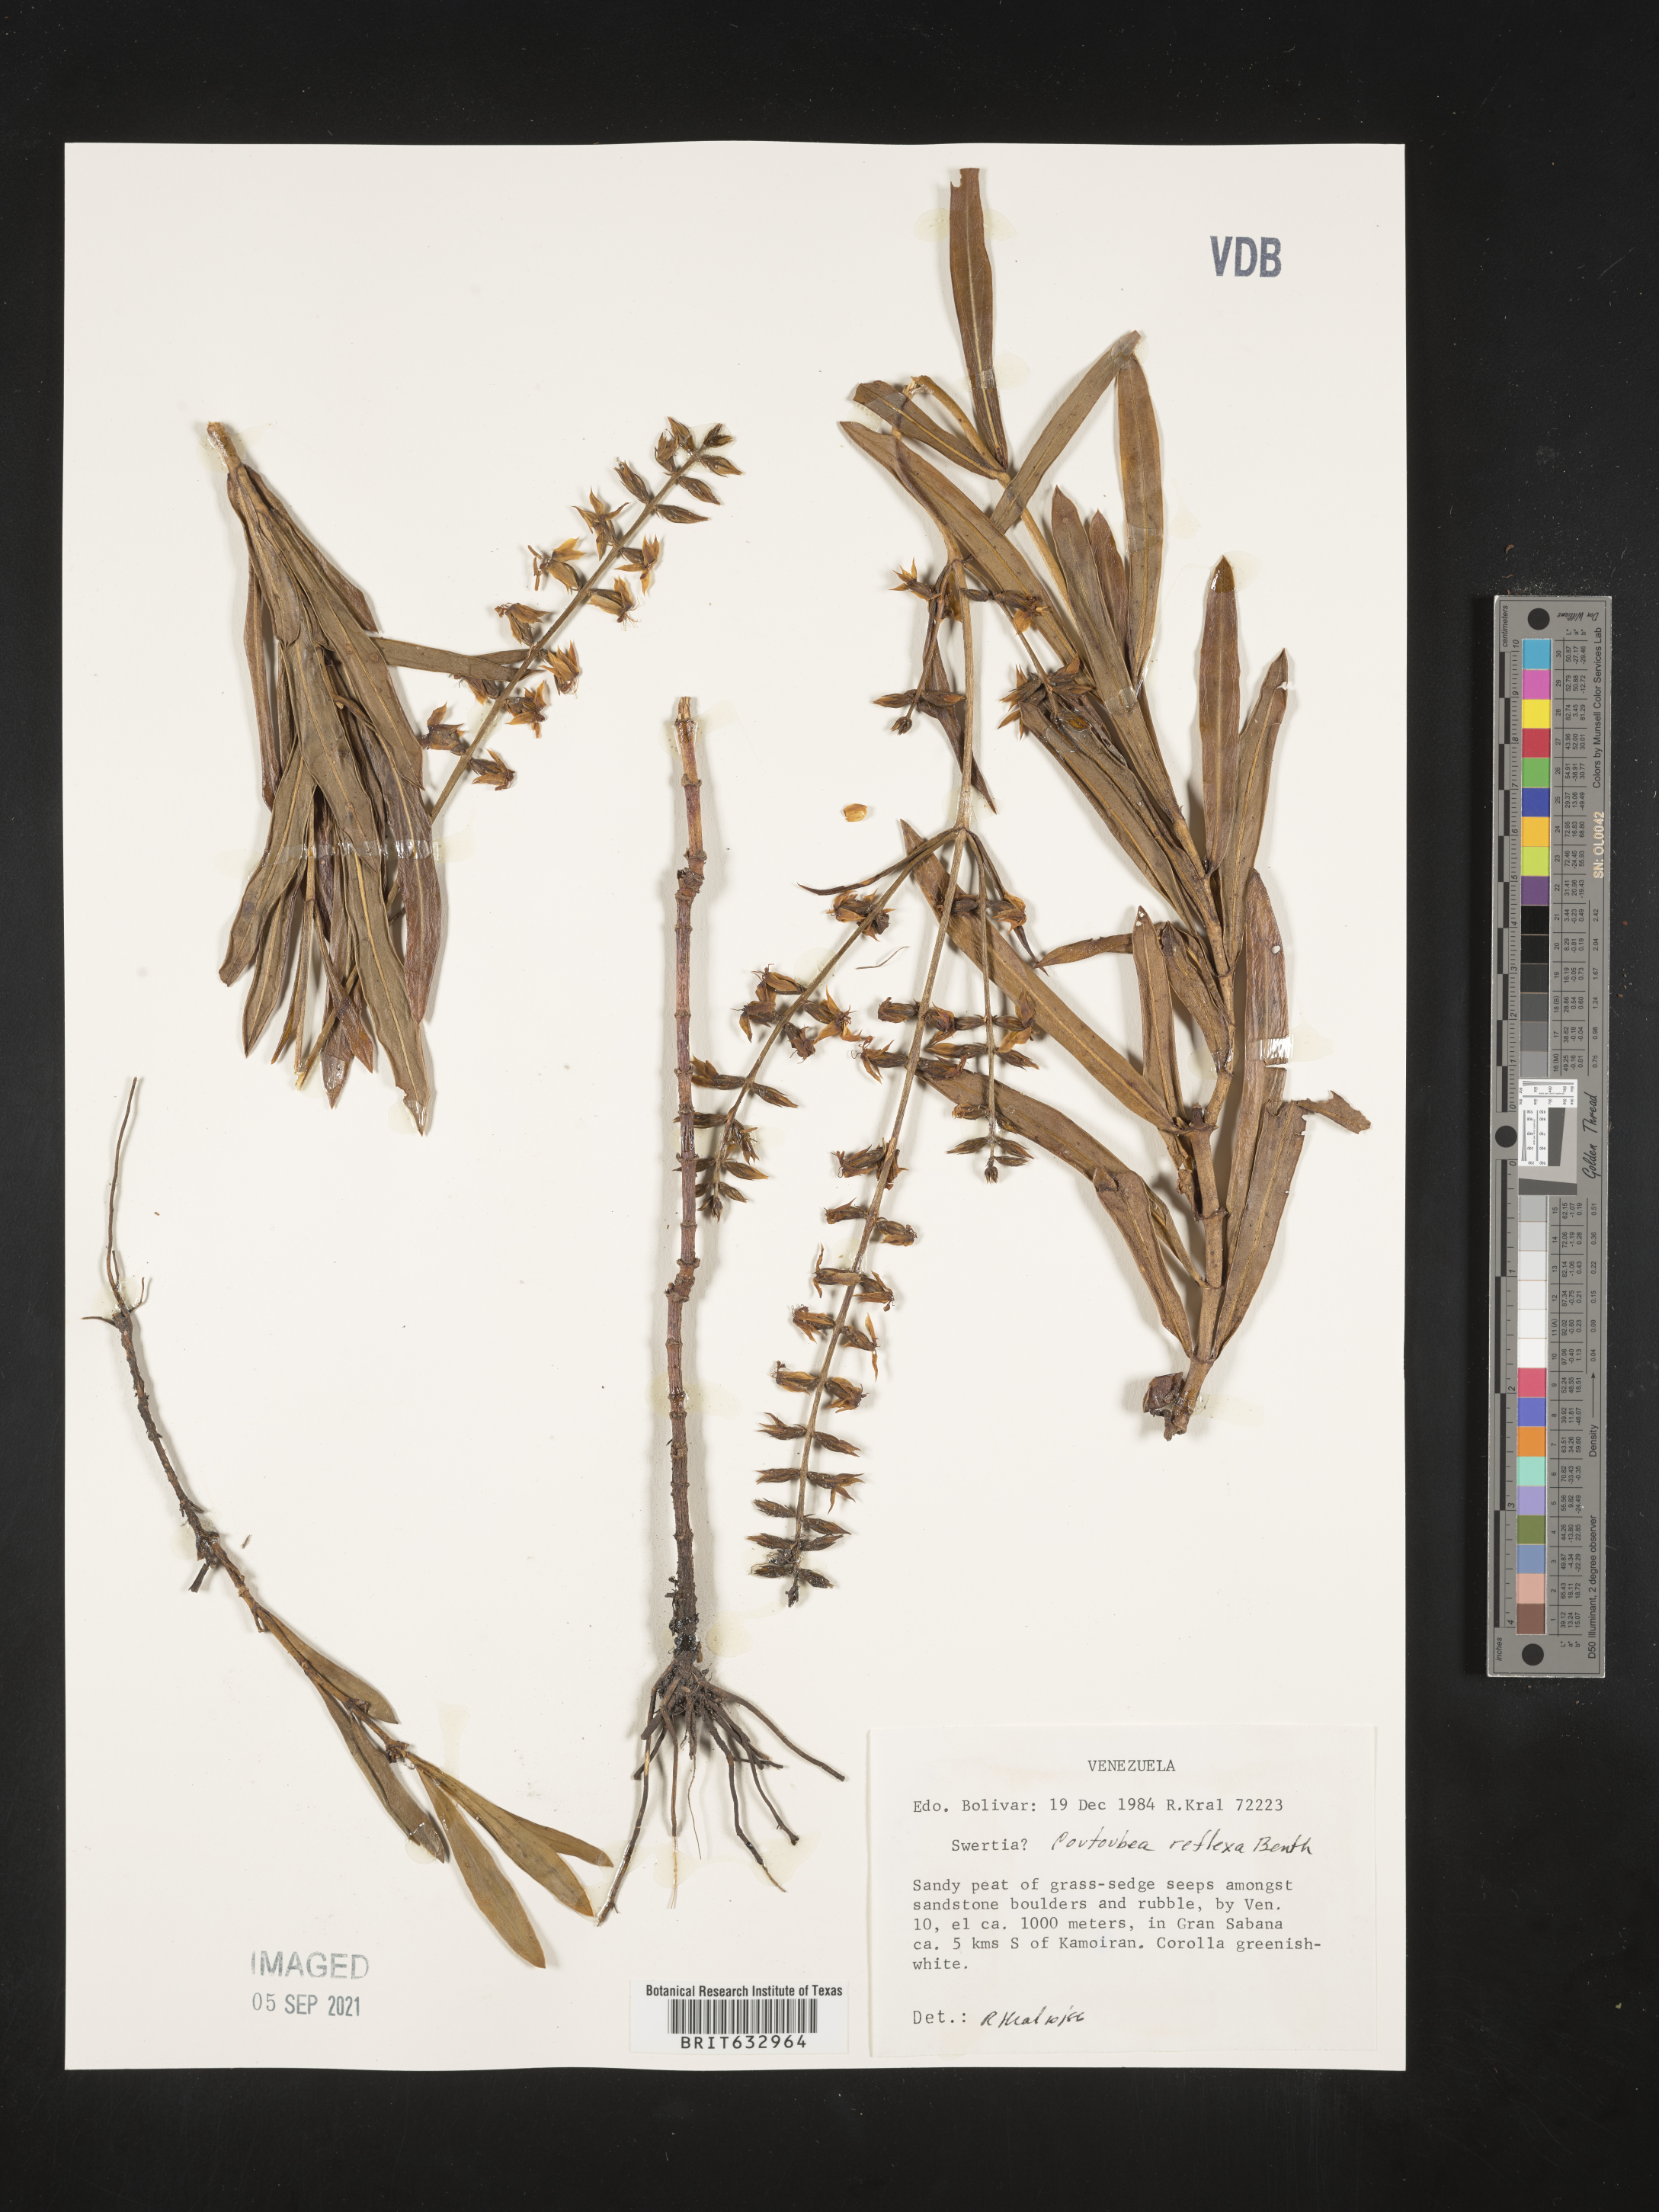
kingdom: Plantae
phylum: Tracheophyta
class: Magnoliopsida
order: Gentianales
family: Gentianaceae
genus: Coutoubea
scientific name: Coutoubea
